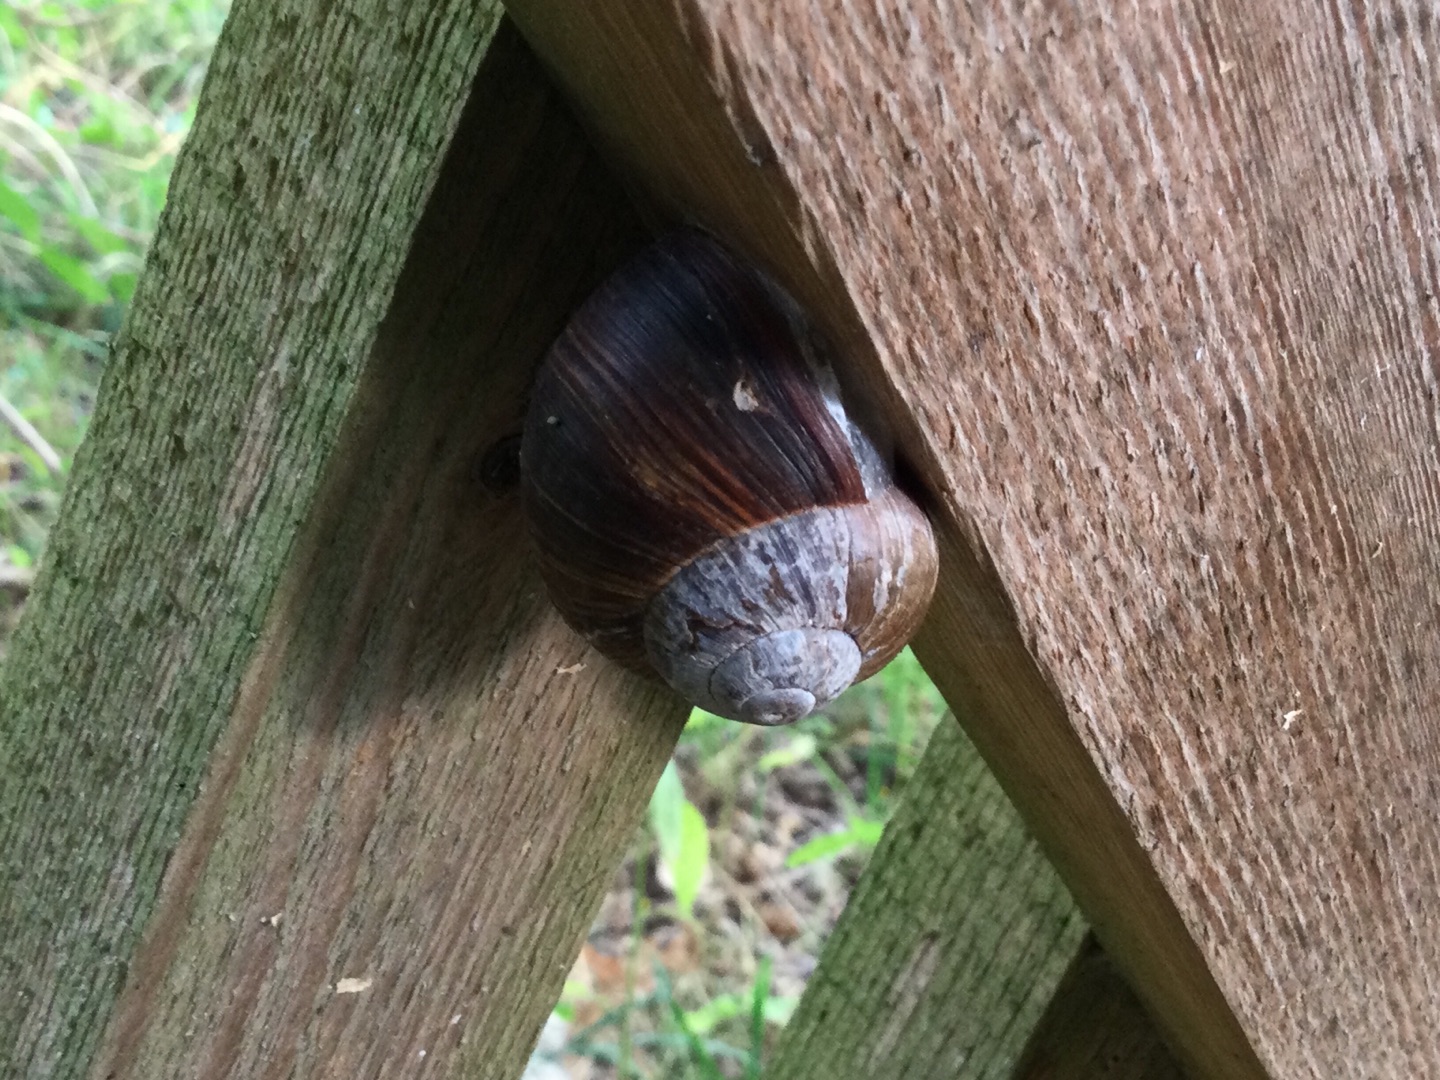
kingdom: Animalia
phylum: Mollusca
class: Gastropoda
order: Stylommatophora
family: Helicidae
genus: Helix
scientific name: Helix pomatia
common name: Vinbjergsnegl
